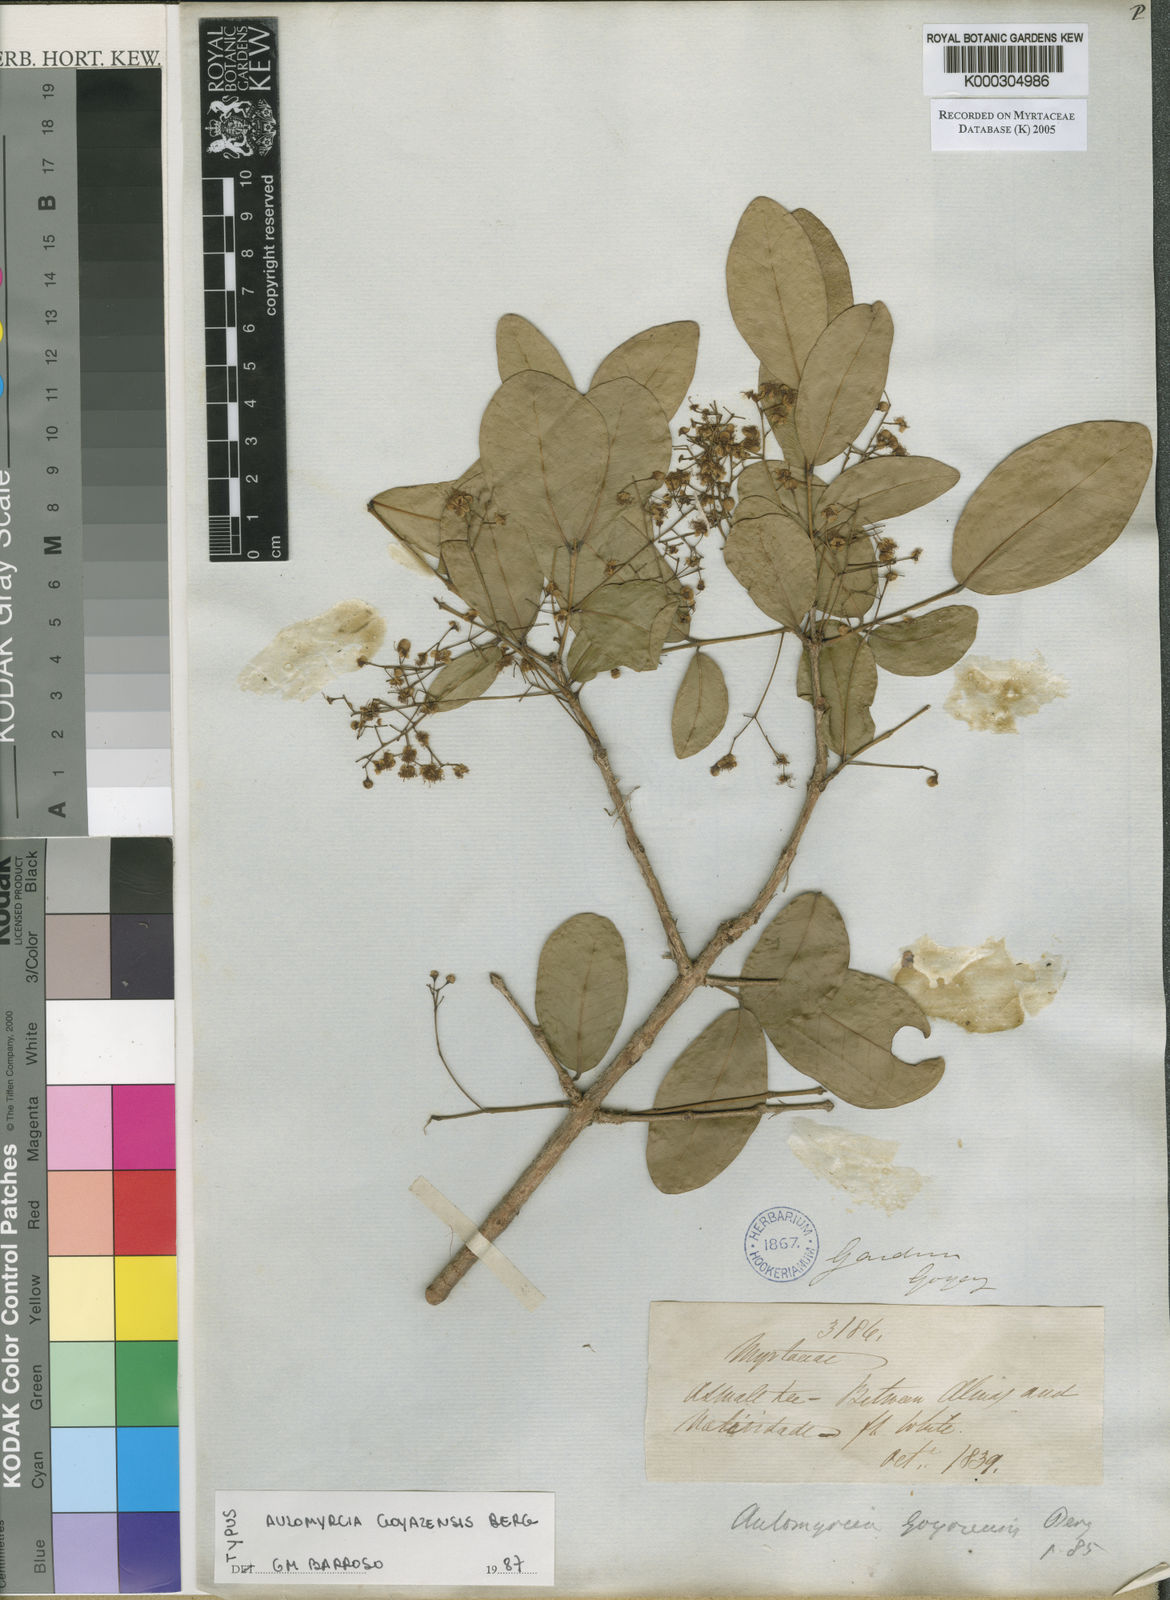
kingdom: Plantae
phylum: Tracheophyta
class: Magnoliopsida
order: Myrtales
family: Myrtaceae
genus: Myrcia
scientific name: Myrcia goyazensis
